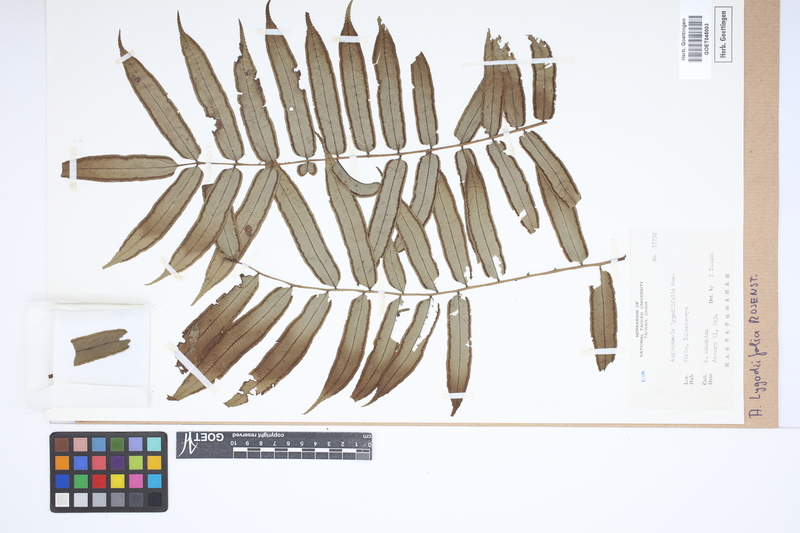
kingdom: Plantae
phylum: Tracheophyta
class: Polypodiopsida
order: Marattiales
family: Marattiaceae
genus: Angiopteris
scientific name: Angiopteris lygodiifolia
